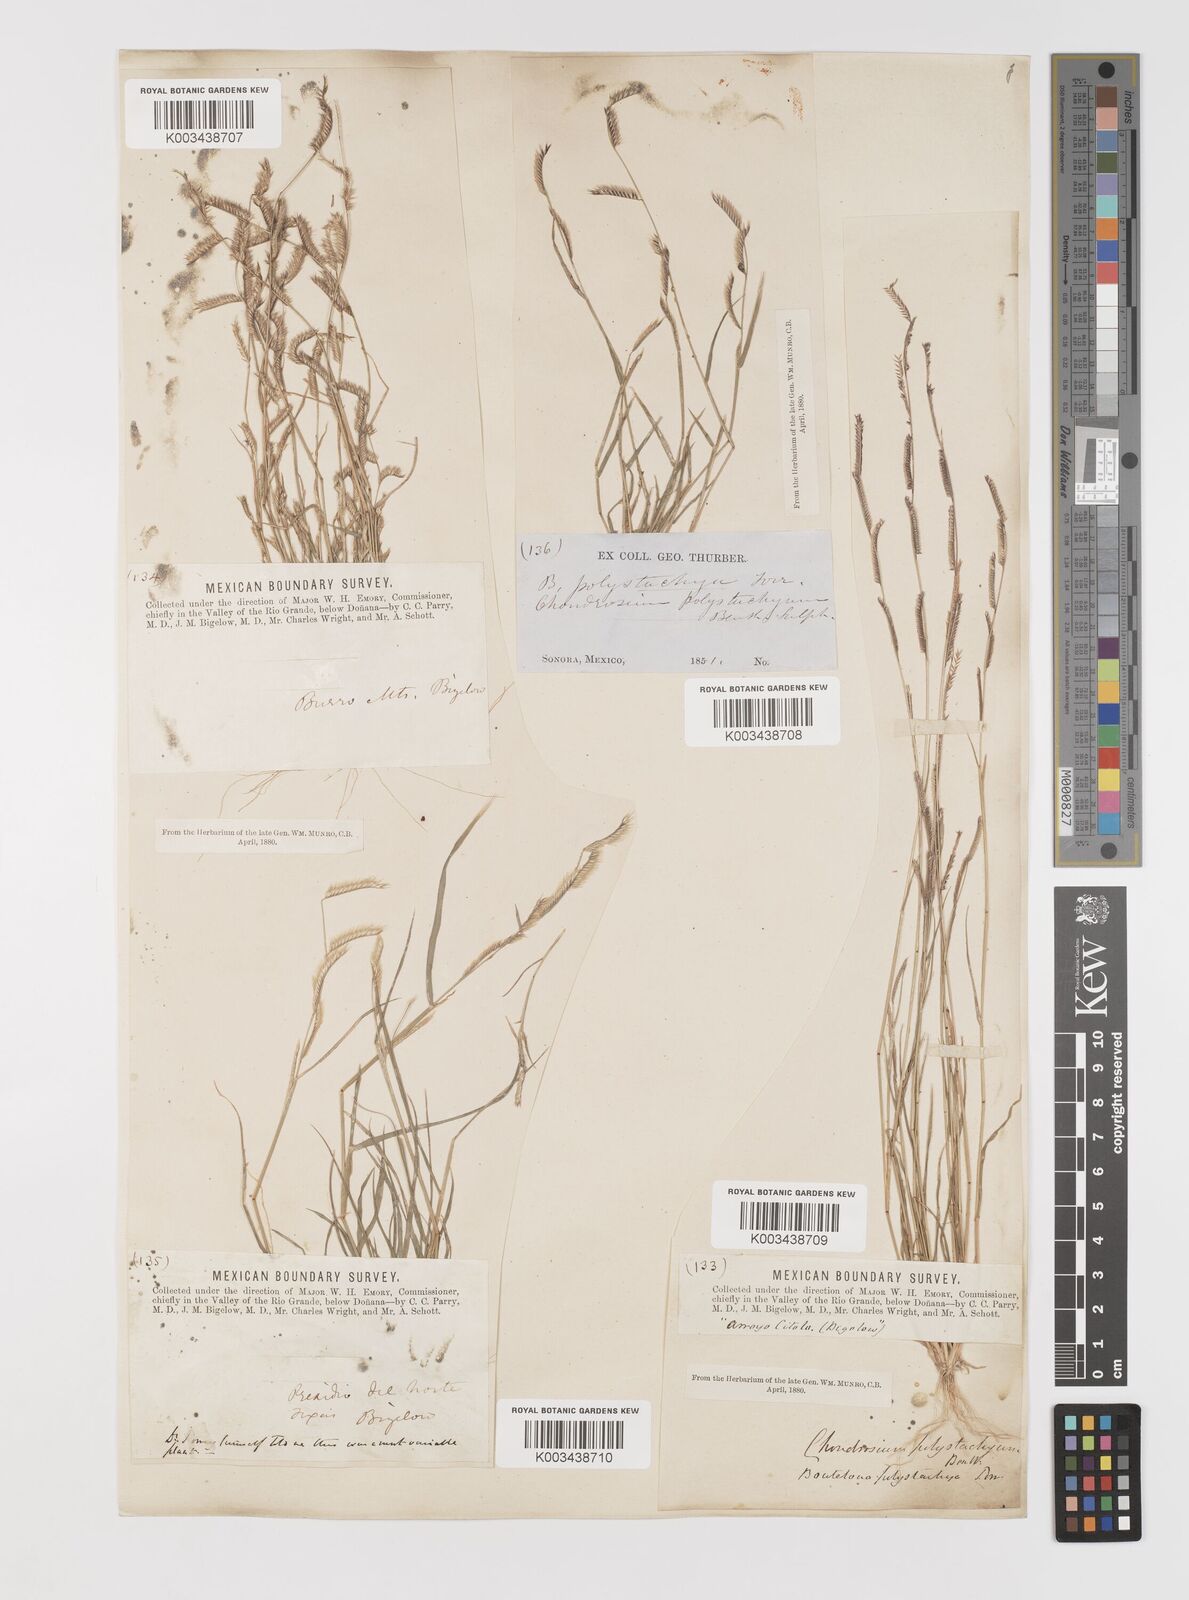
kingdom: Plantae
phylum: Tracheophyta
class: Liliopsida
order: Poales
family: Poaceae
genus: Bouteloua
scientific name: Bouteloua barbata
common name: Six-weeks grama
